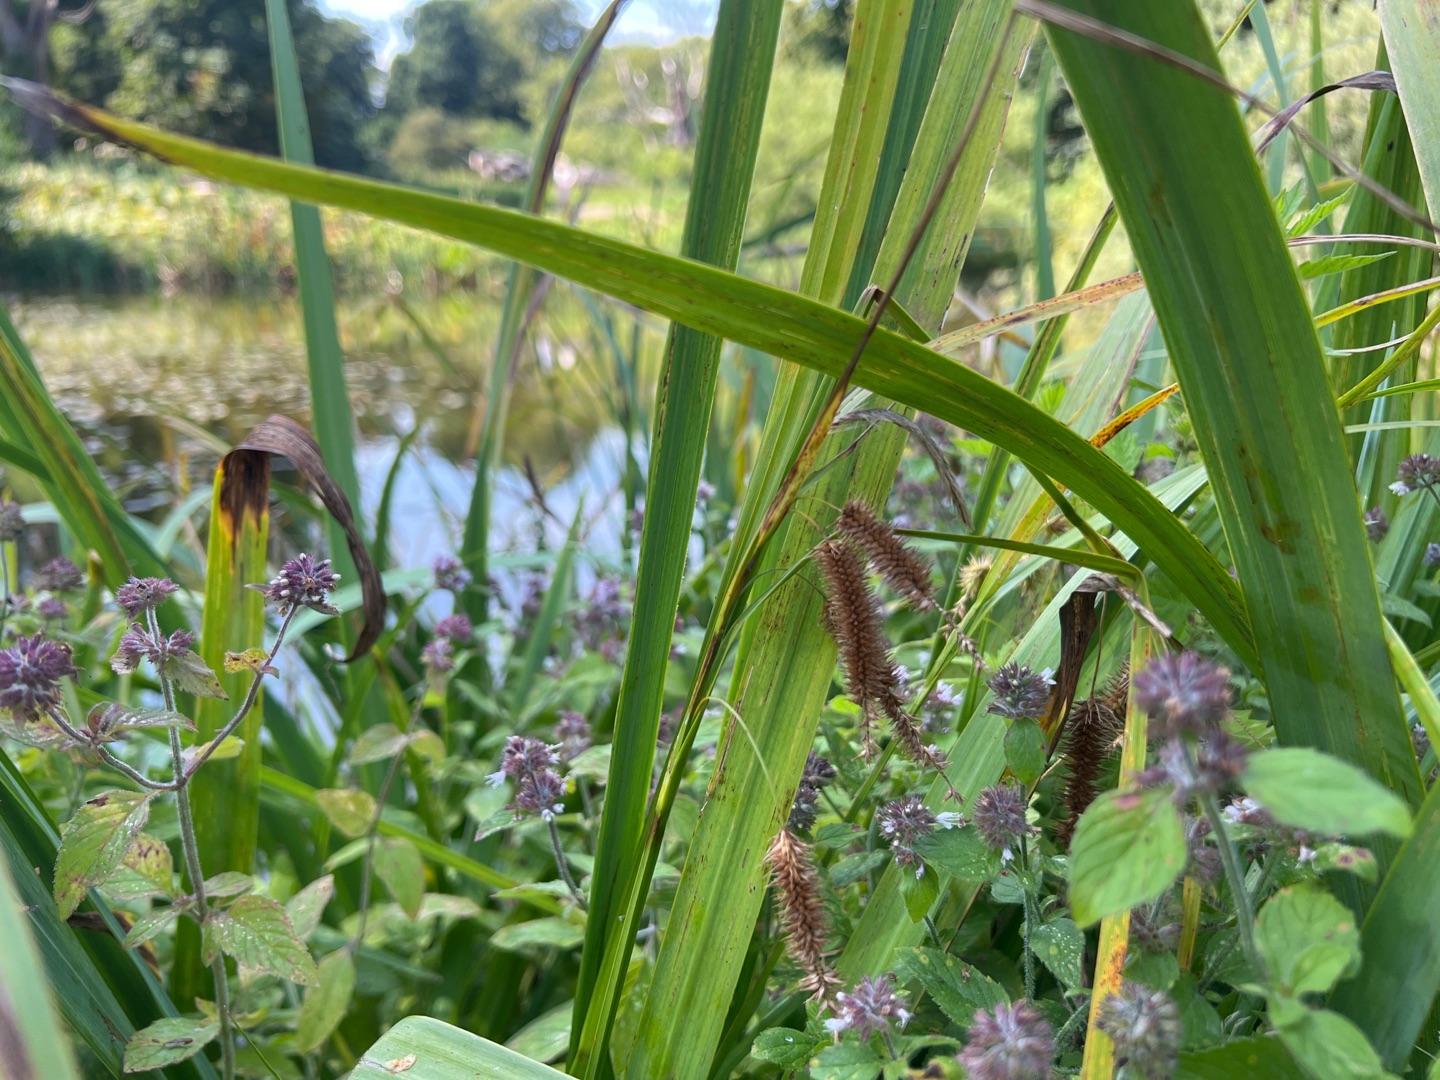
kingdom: Plantae
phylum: Tracheophyta
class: Liliopsida
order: Poales
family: Cyperaceae
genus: Carex
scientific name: Carex pseudocyperus
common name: Knippe-star
